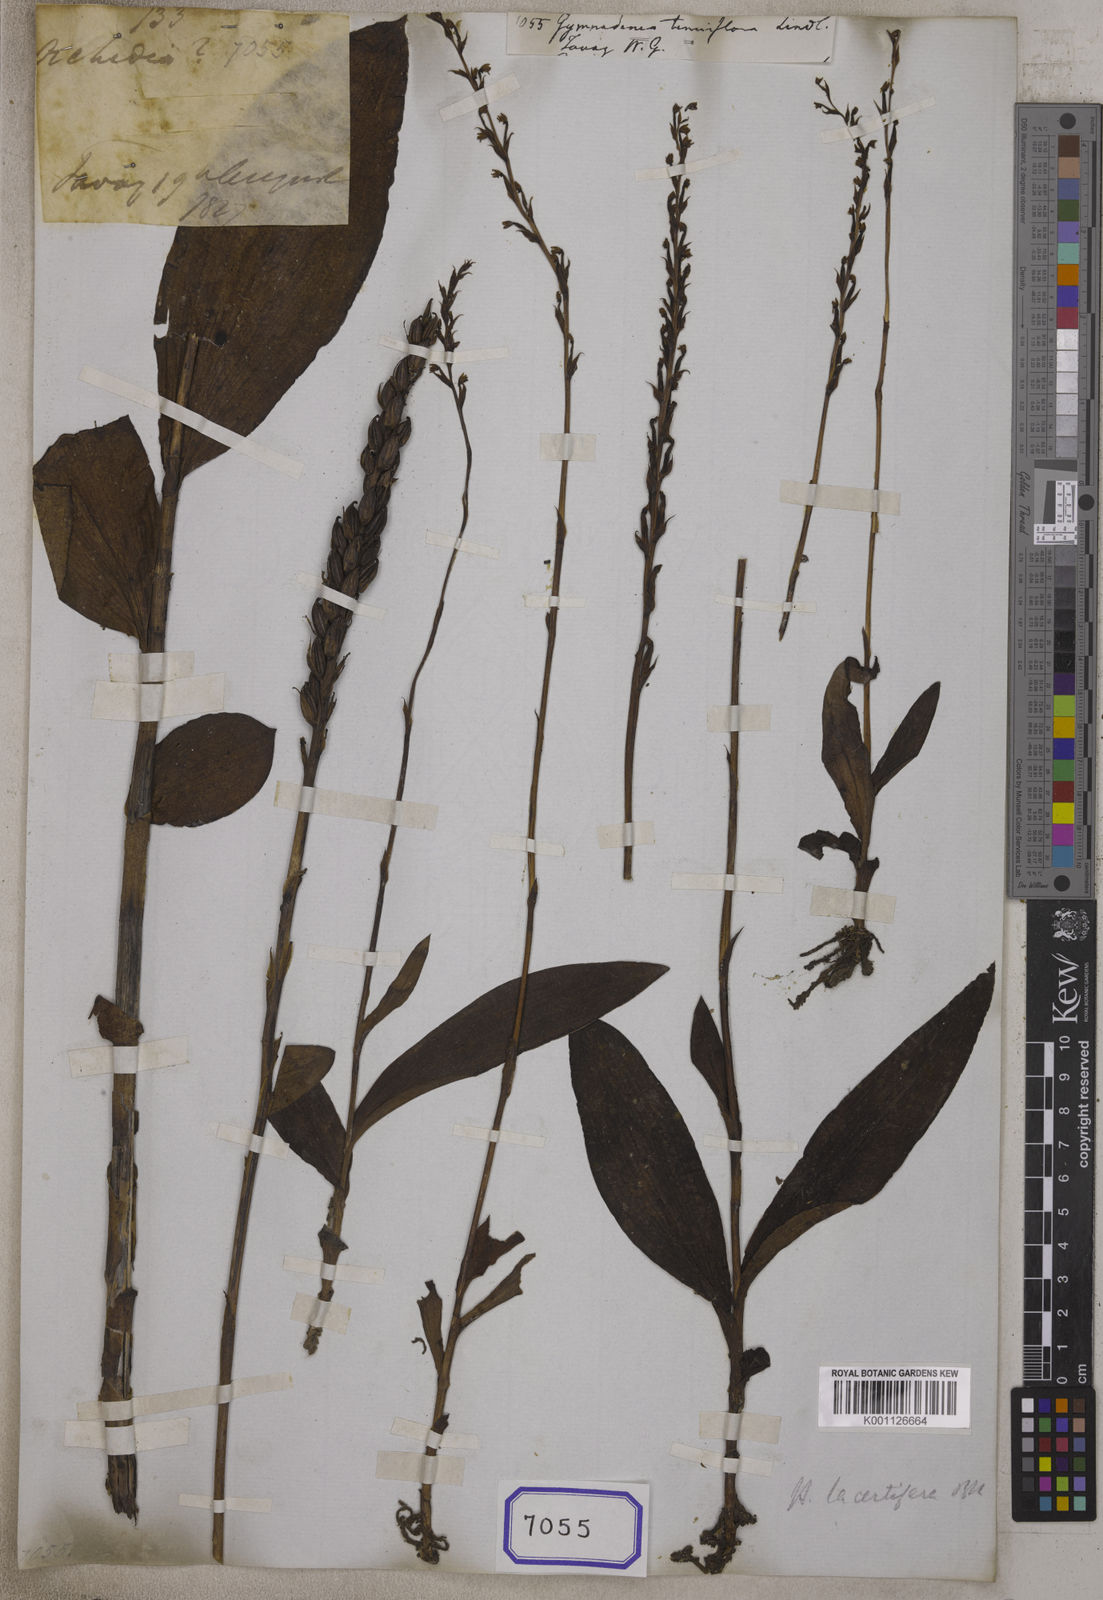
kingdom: Plantae
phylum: Tracheophyta
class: Liliopsida
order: Asparagales
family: Orchidaceae
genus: Gymnadenia
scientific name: Gymnadenia
